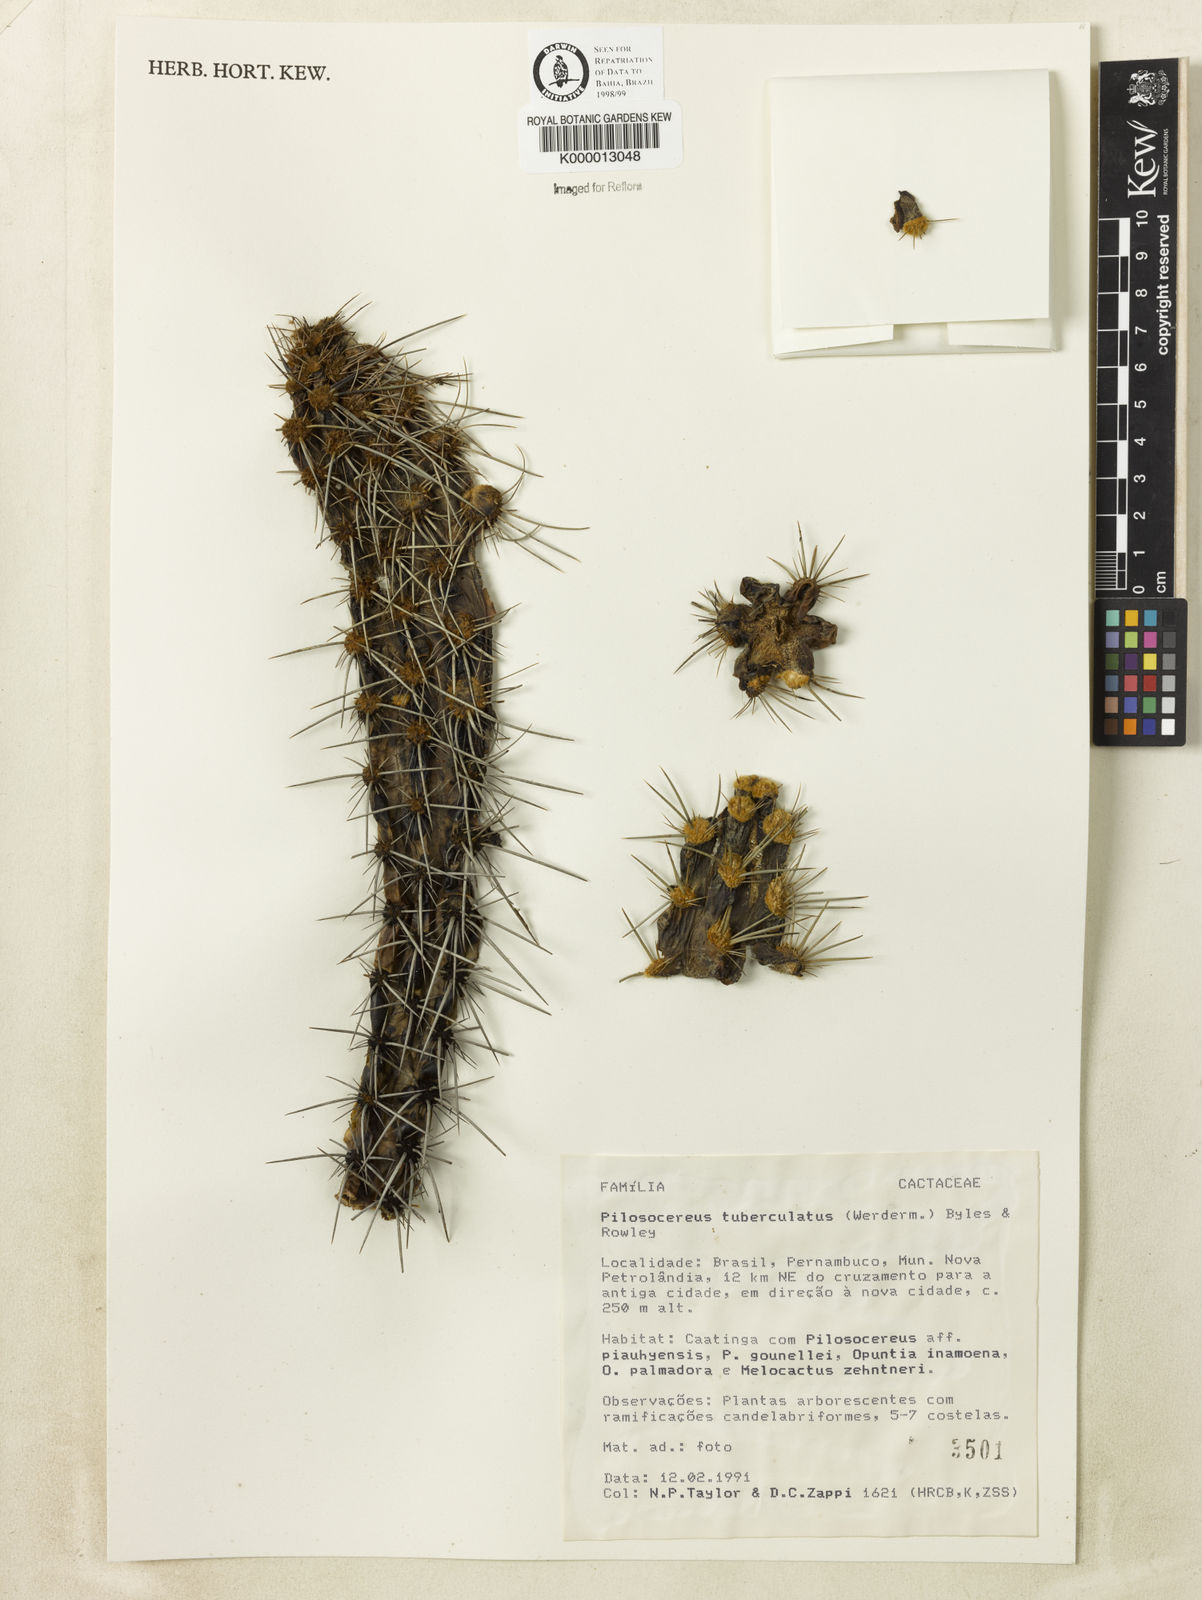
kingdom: Plantae
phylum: Tracheophyta
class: Magnoliopsida
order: Caryophyllales
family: Cactaceae
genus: Xiquexique
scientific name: Xiquexique tuberculatus
